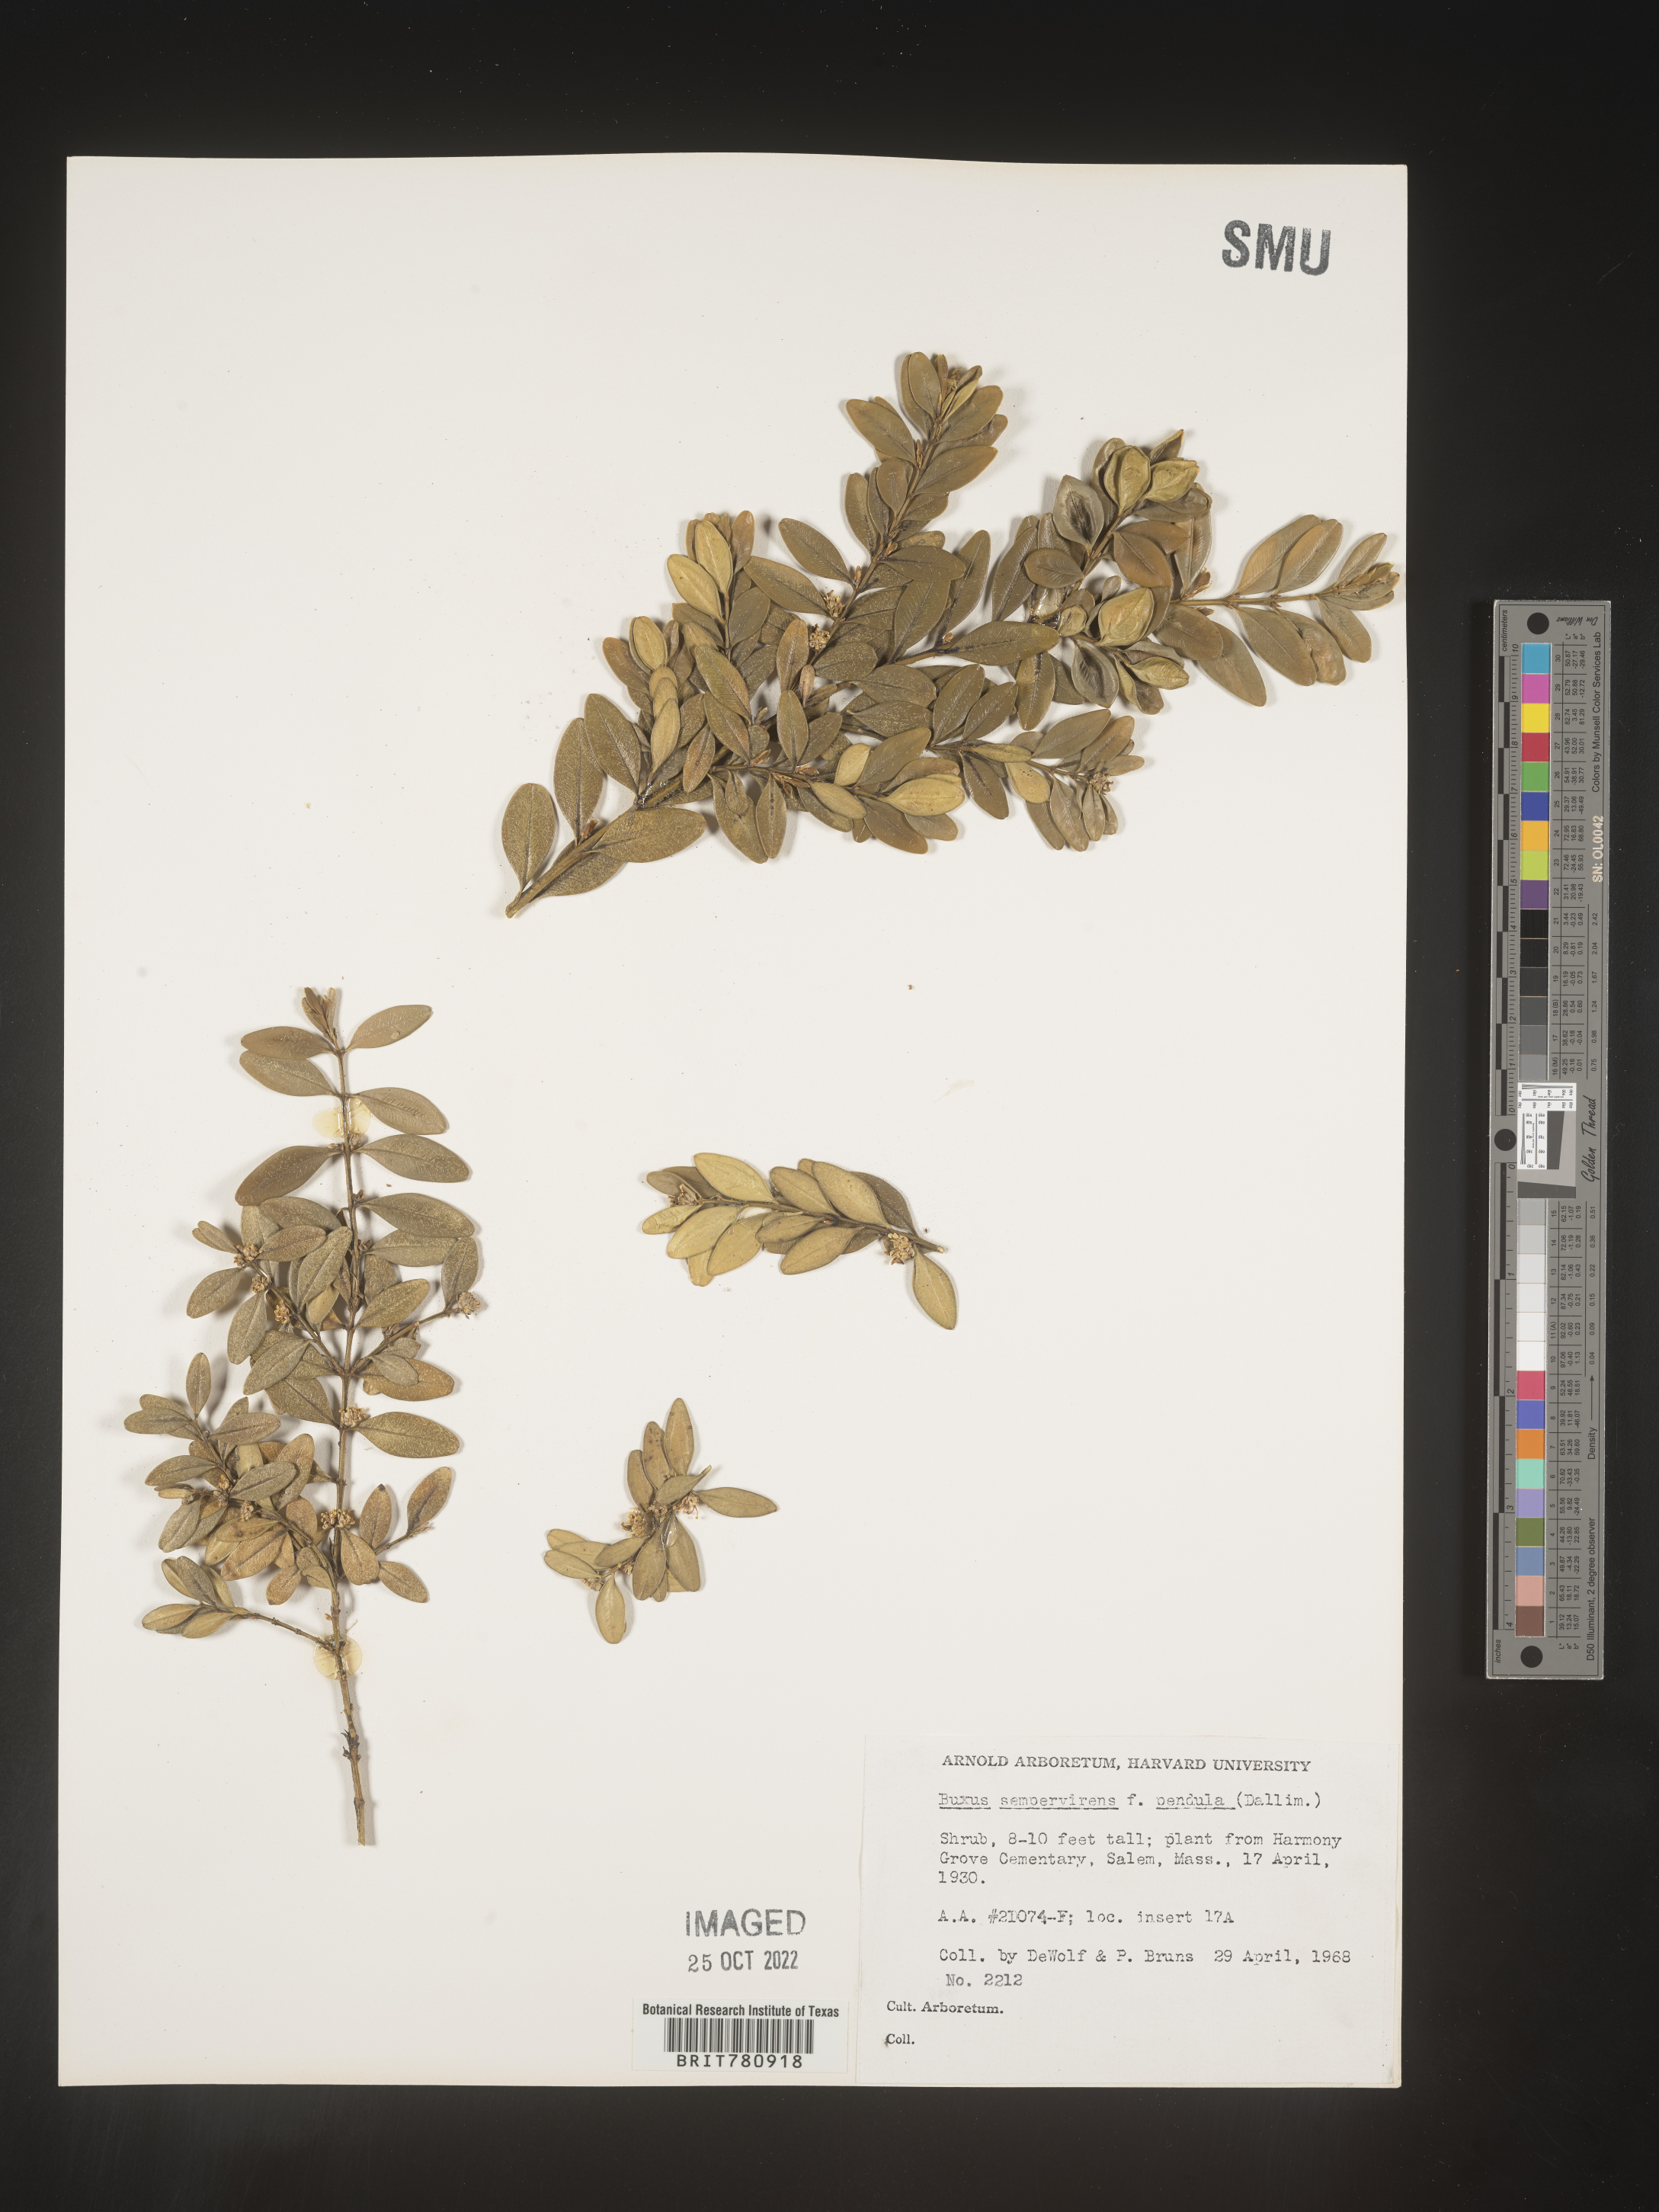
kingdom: Plantae
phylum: Tracheophyta
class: Magnoliopsida
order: Buxales
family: Buxaceae
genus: Buxus
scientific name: Buxus
